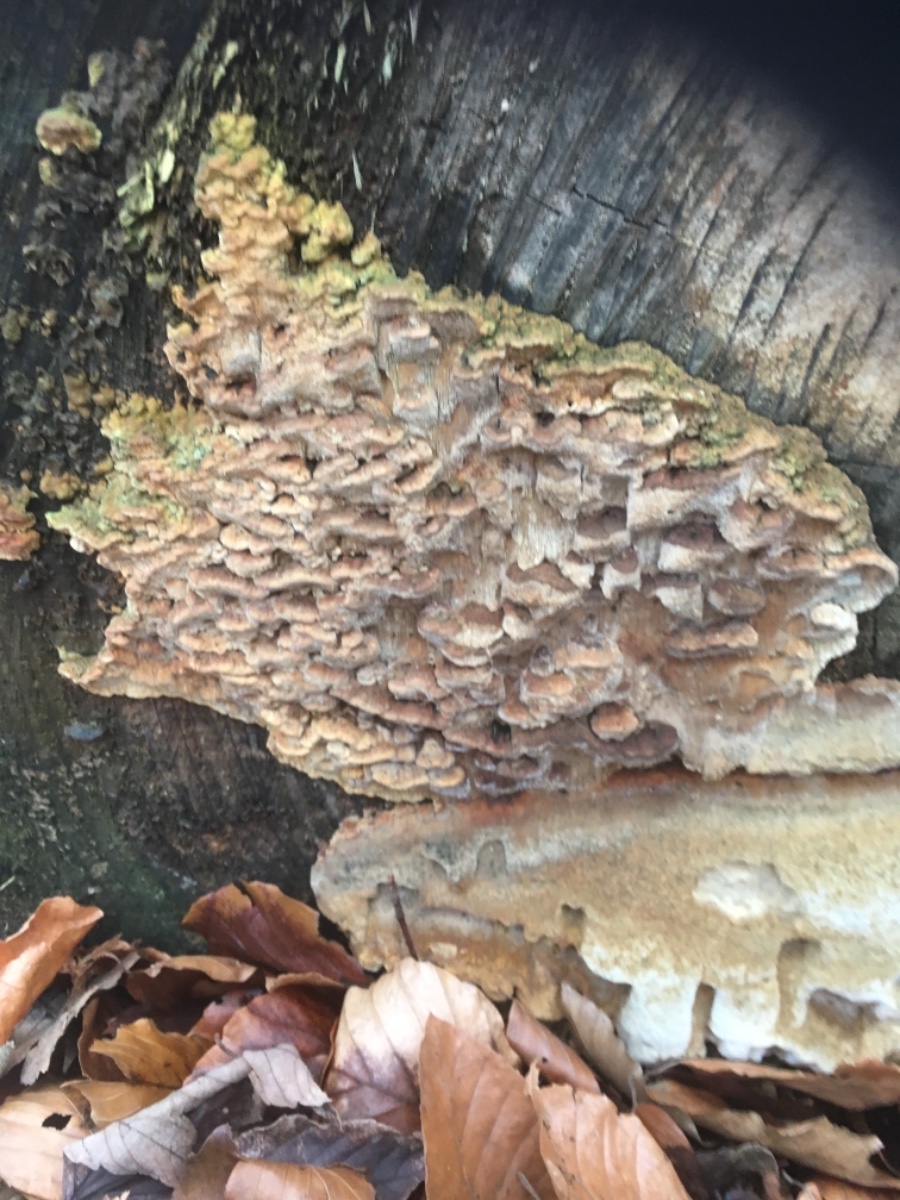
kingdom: Fungi
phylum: Basidiomycota
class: Agaricomycetes
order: Polyporales
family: Fomitopsidaceae
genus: Neoantrodia
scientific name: Neoantrodia serialis
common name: række-sejporesvamp
